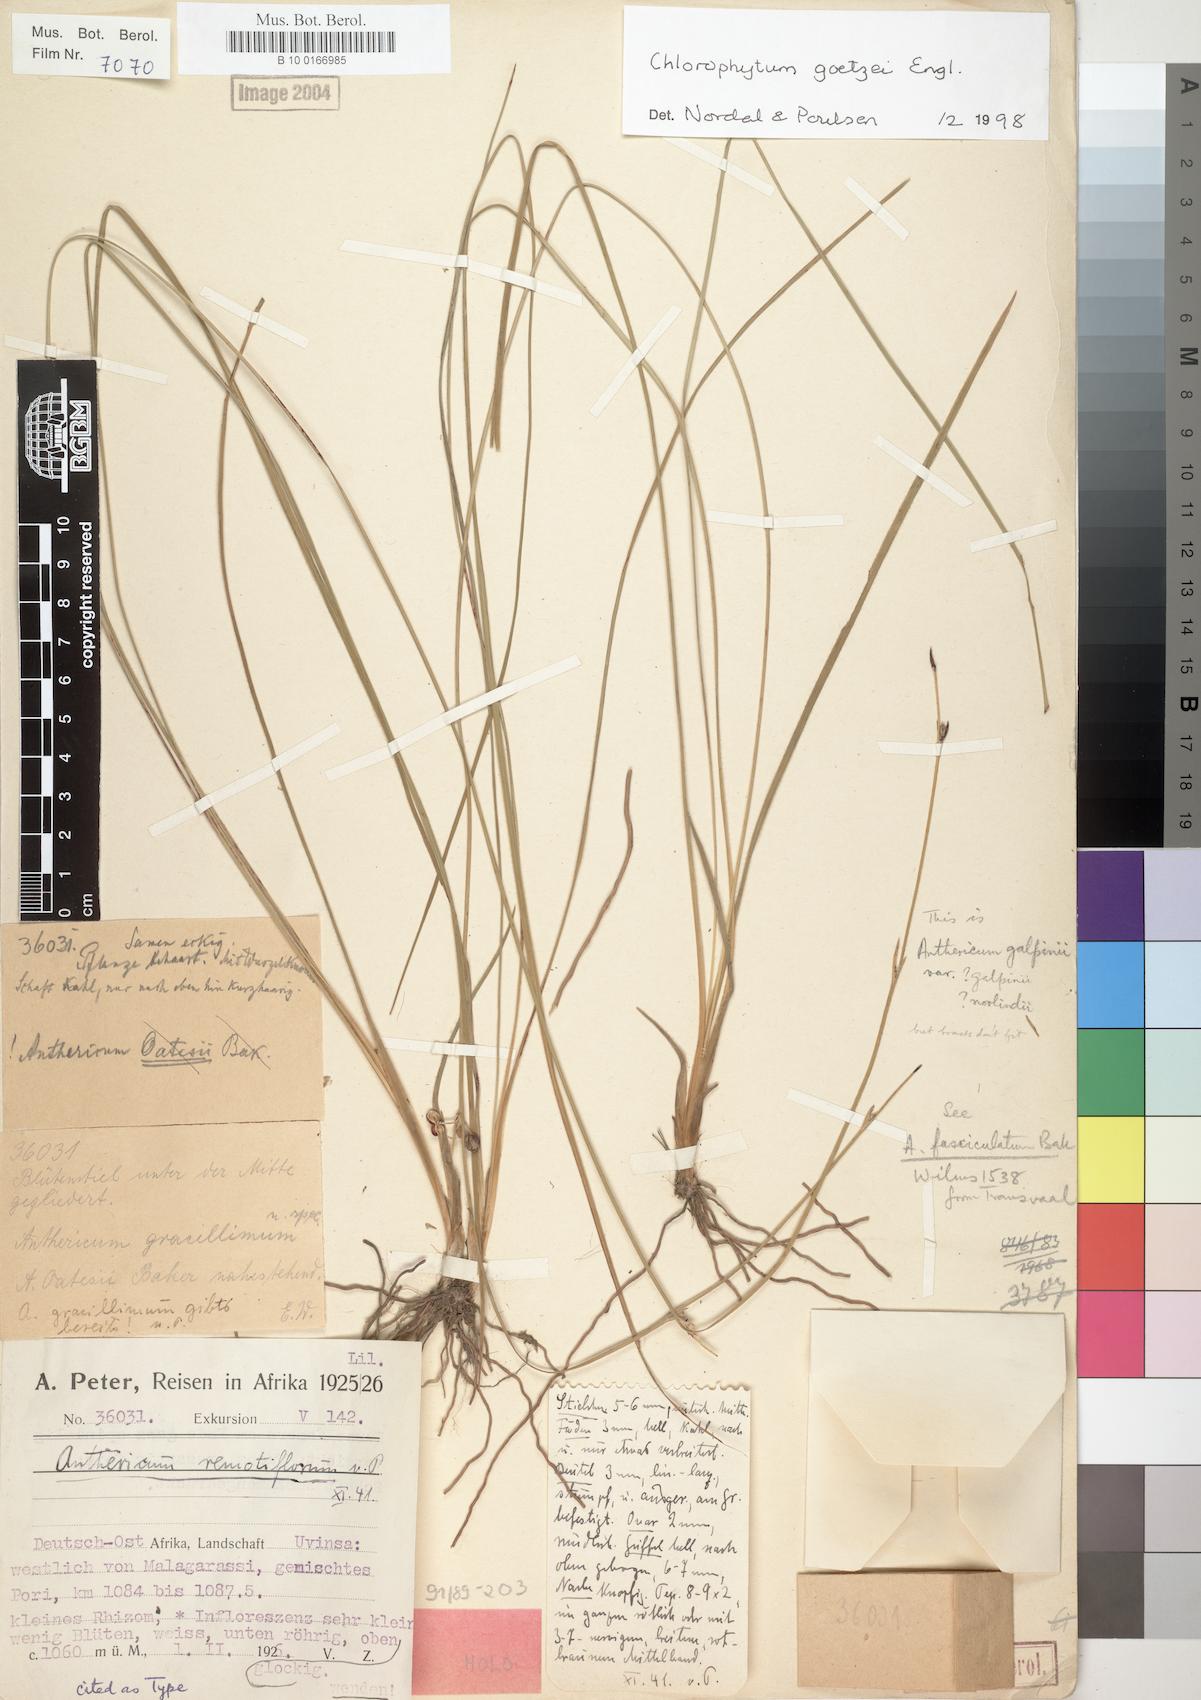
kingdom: Plantae
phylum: Tracheophyta
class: Liliopsida
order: Asparagales
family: Asparagaceae
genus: Chlorophytum
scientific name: Chlorophytum goetzei
